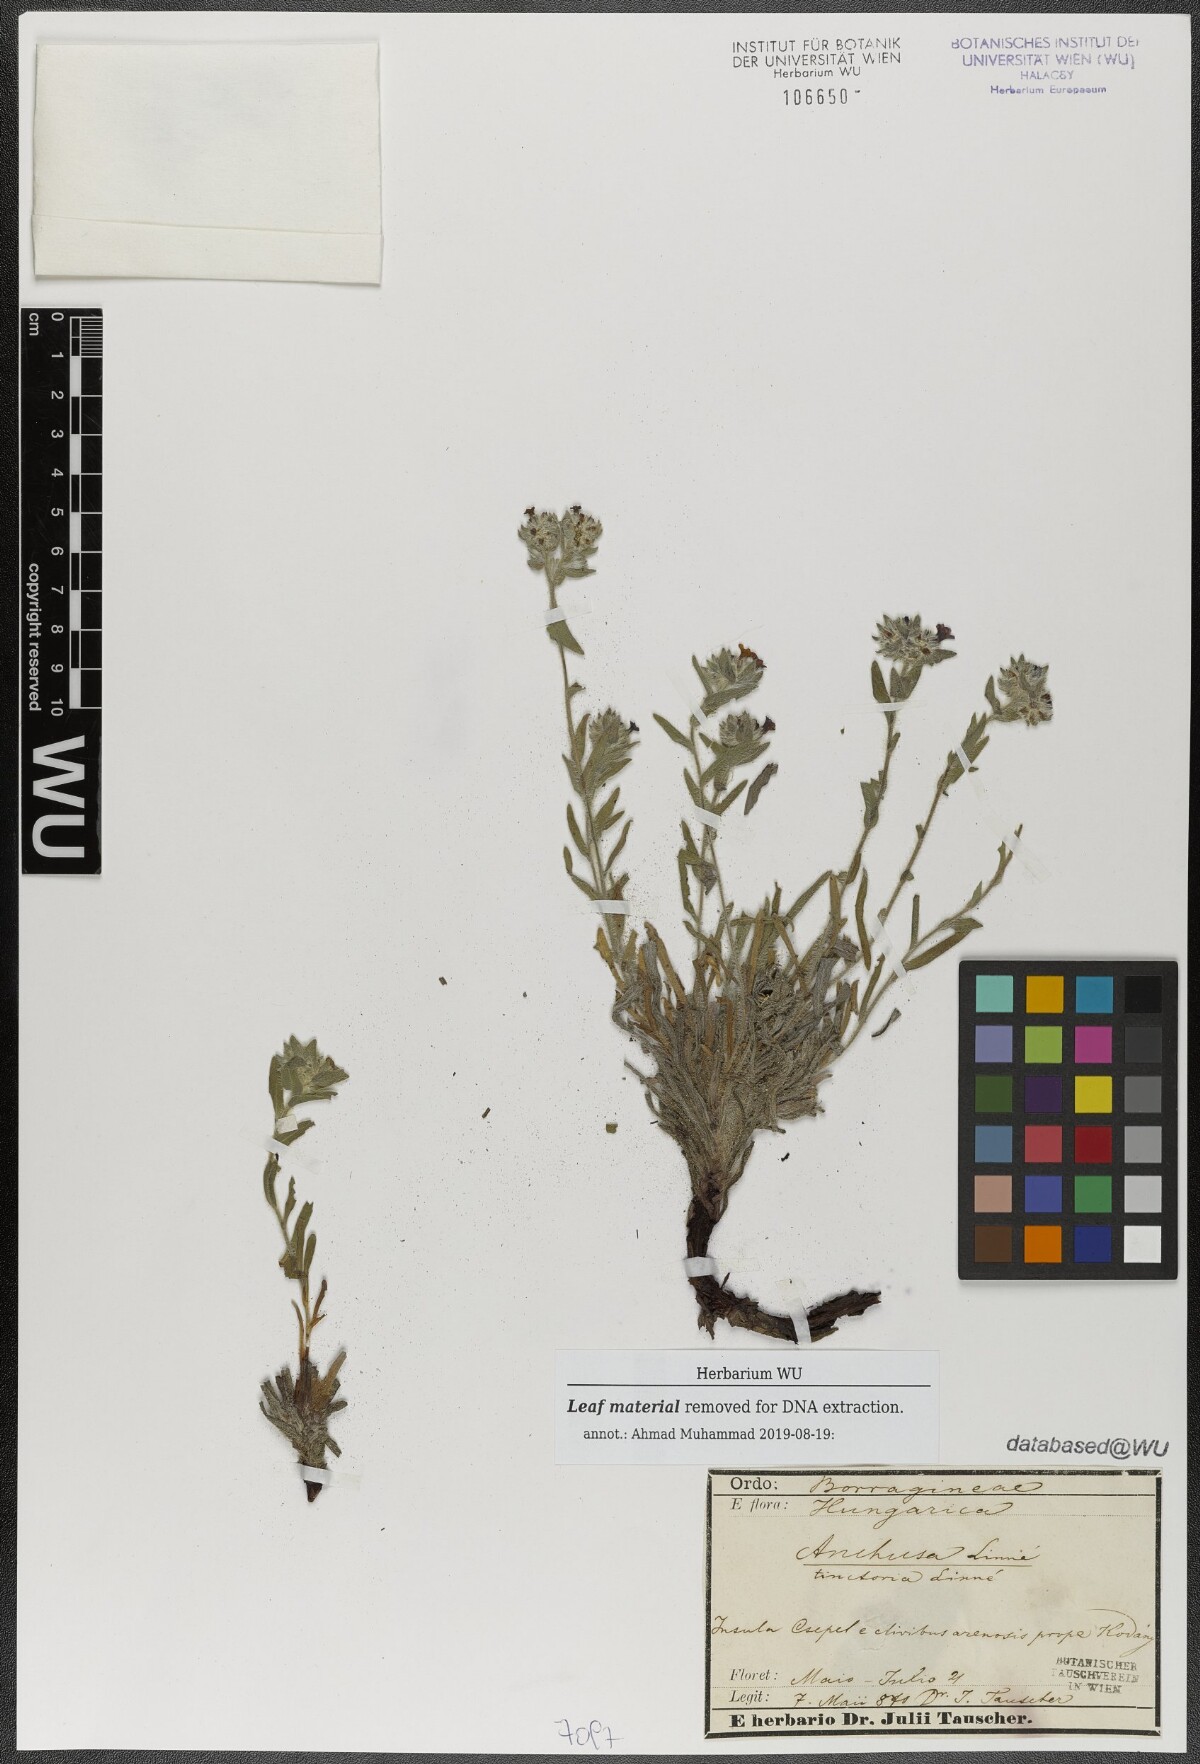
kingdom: Plantae
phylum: Tracheophyta
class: Magnoliopsida
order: Boraginales
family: Boraginaceae
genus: Alkanna
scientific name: Alkanna tinctoria
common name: Dyer's-alkanet
